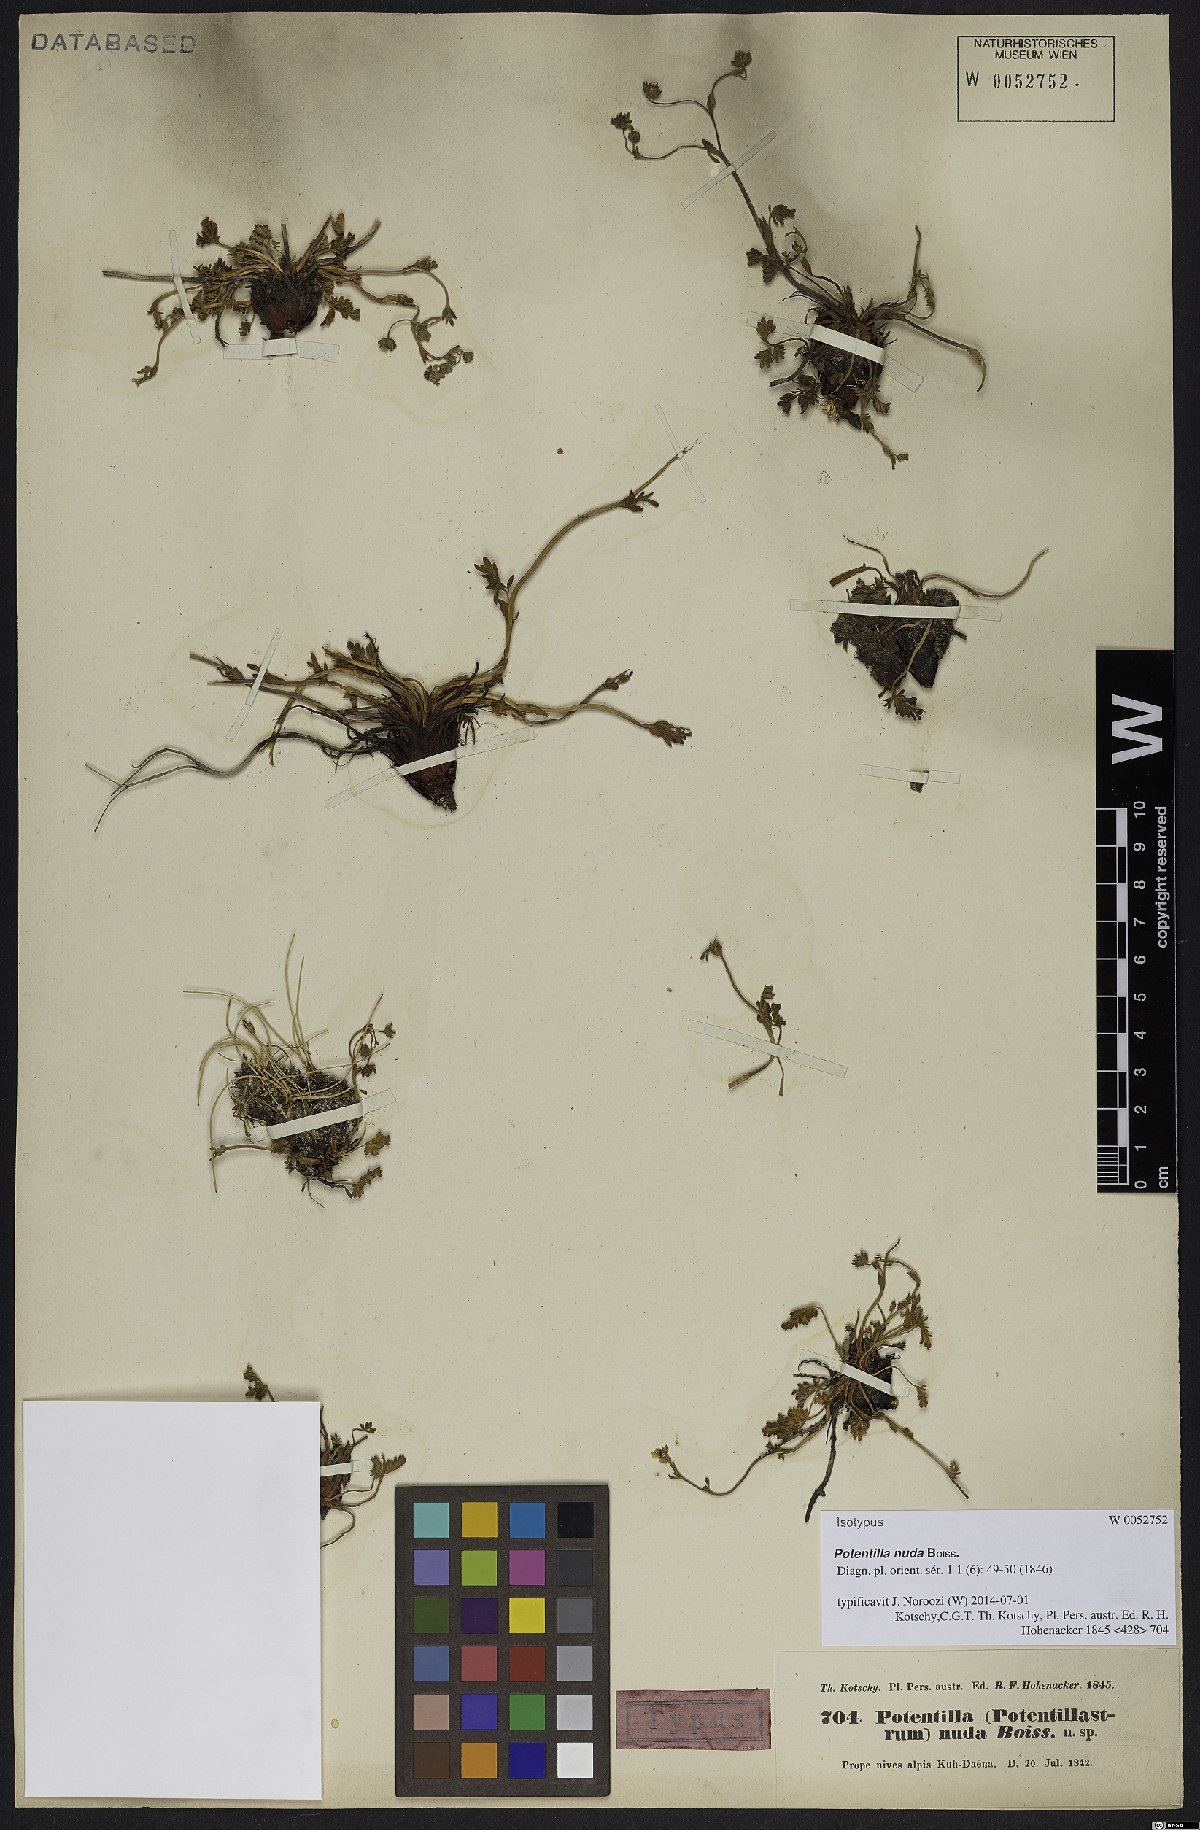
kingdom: Plantae
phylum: Tracheophyta
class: Magnoliopsida
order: Rosales
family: Rosaceae
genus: Potentilla
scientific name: Potentilla nuda
